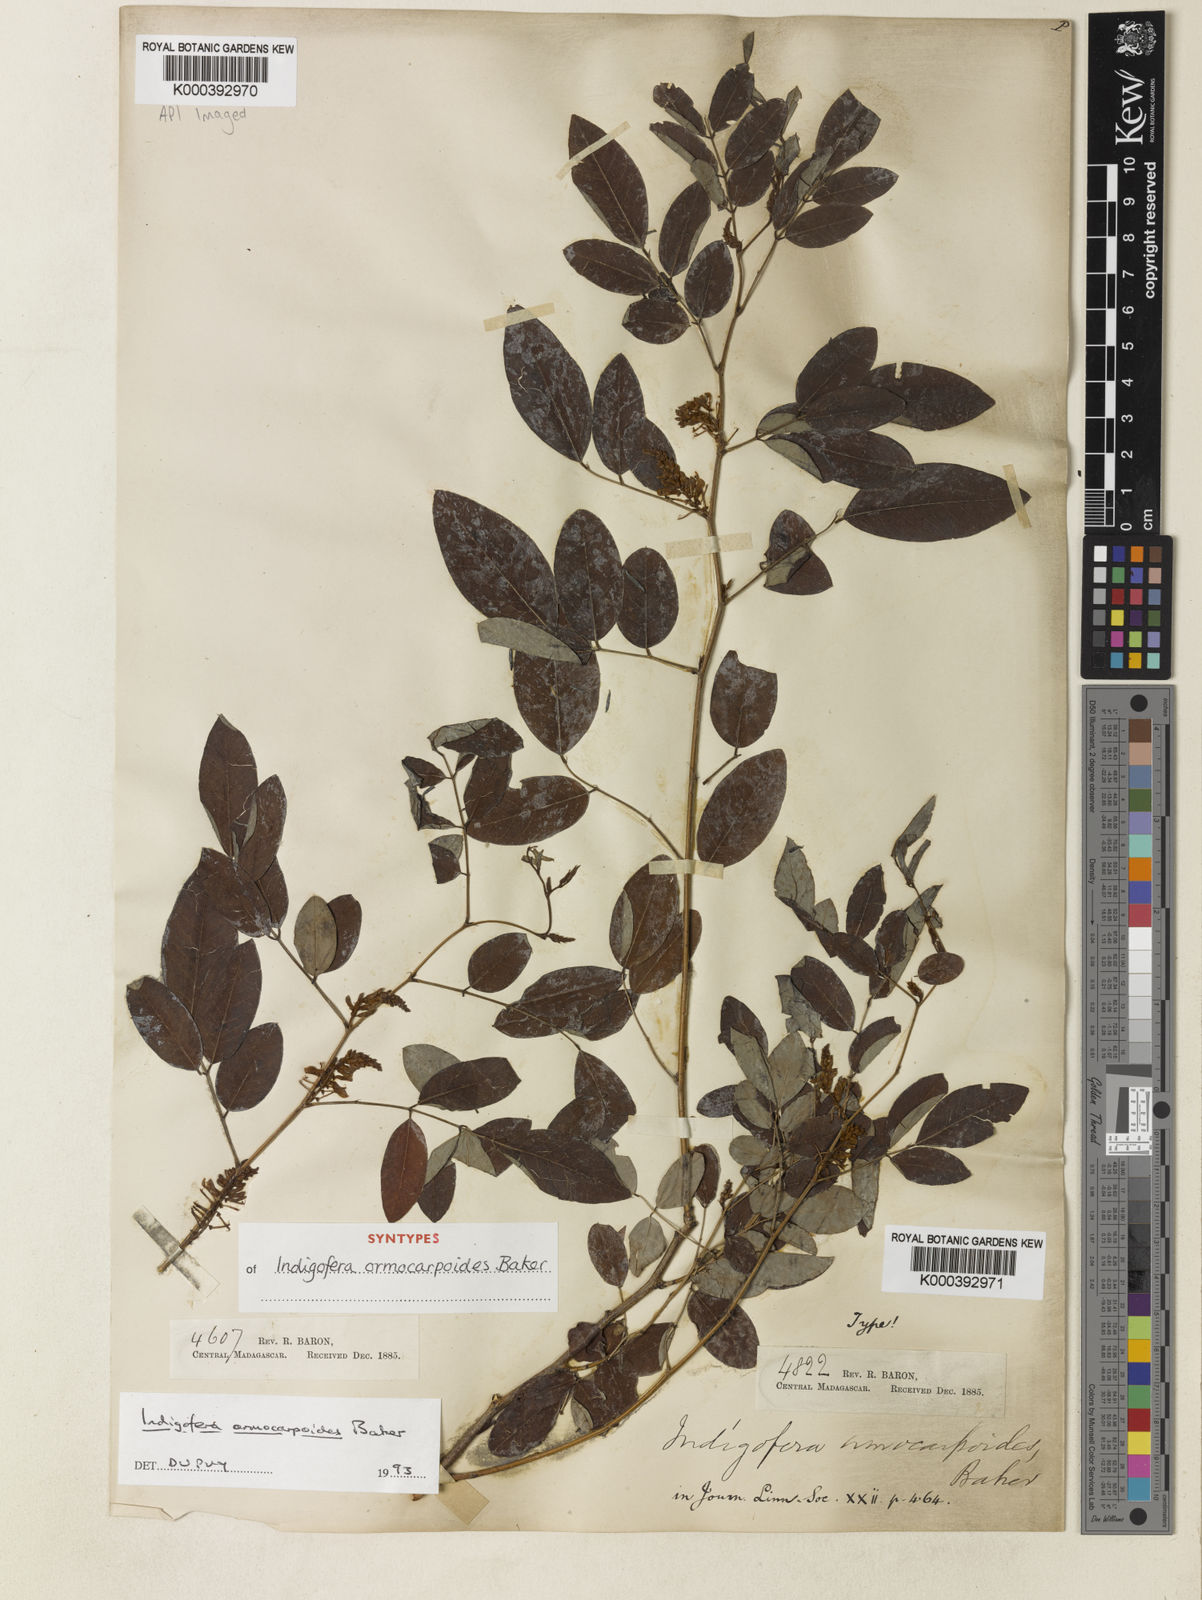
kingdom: Plantae
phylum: Tracheophyta
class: Magnoliopsida
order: Fabales
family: Fabaceae
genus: Indigofera
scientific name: Indigofera ormocarpoides
